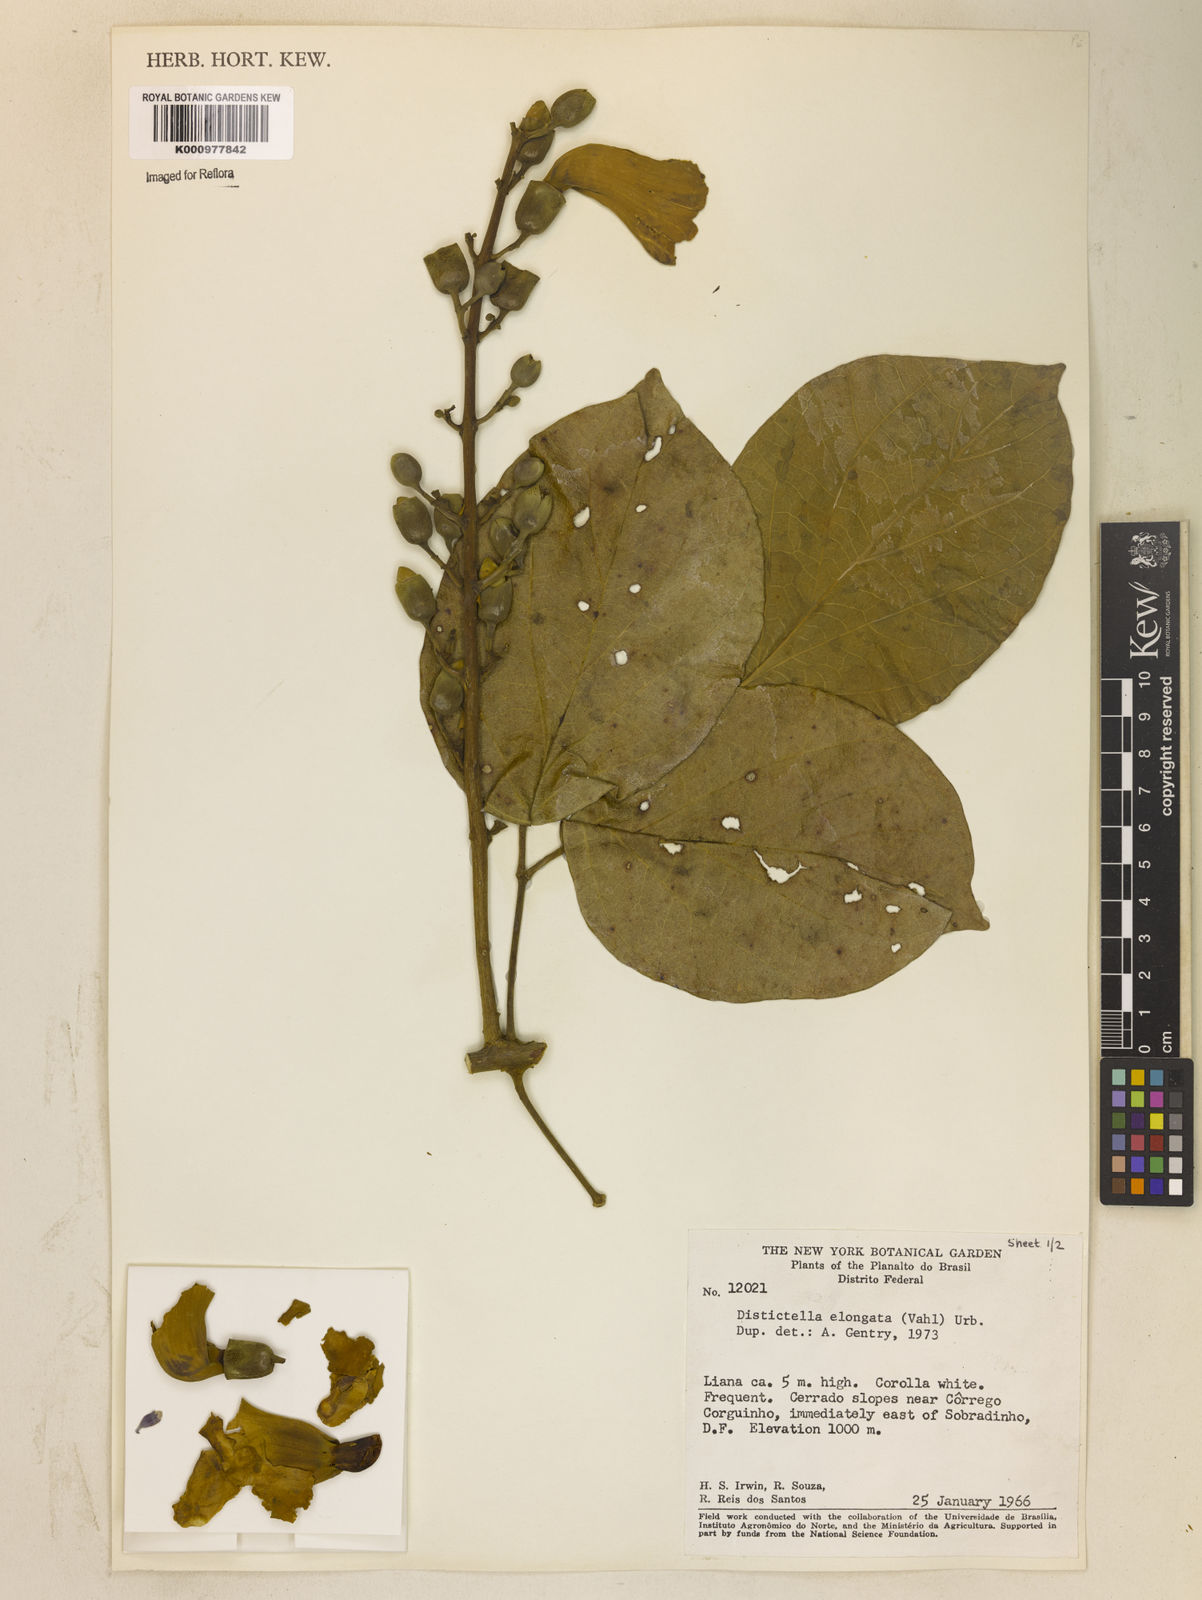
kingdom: Plantae
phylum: Tracheophyta
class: Magnoliopsida
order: Lamiales
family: Bignoniaceae
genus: Amphilophium
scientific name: Amphilophium elongatum
